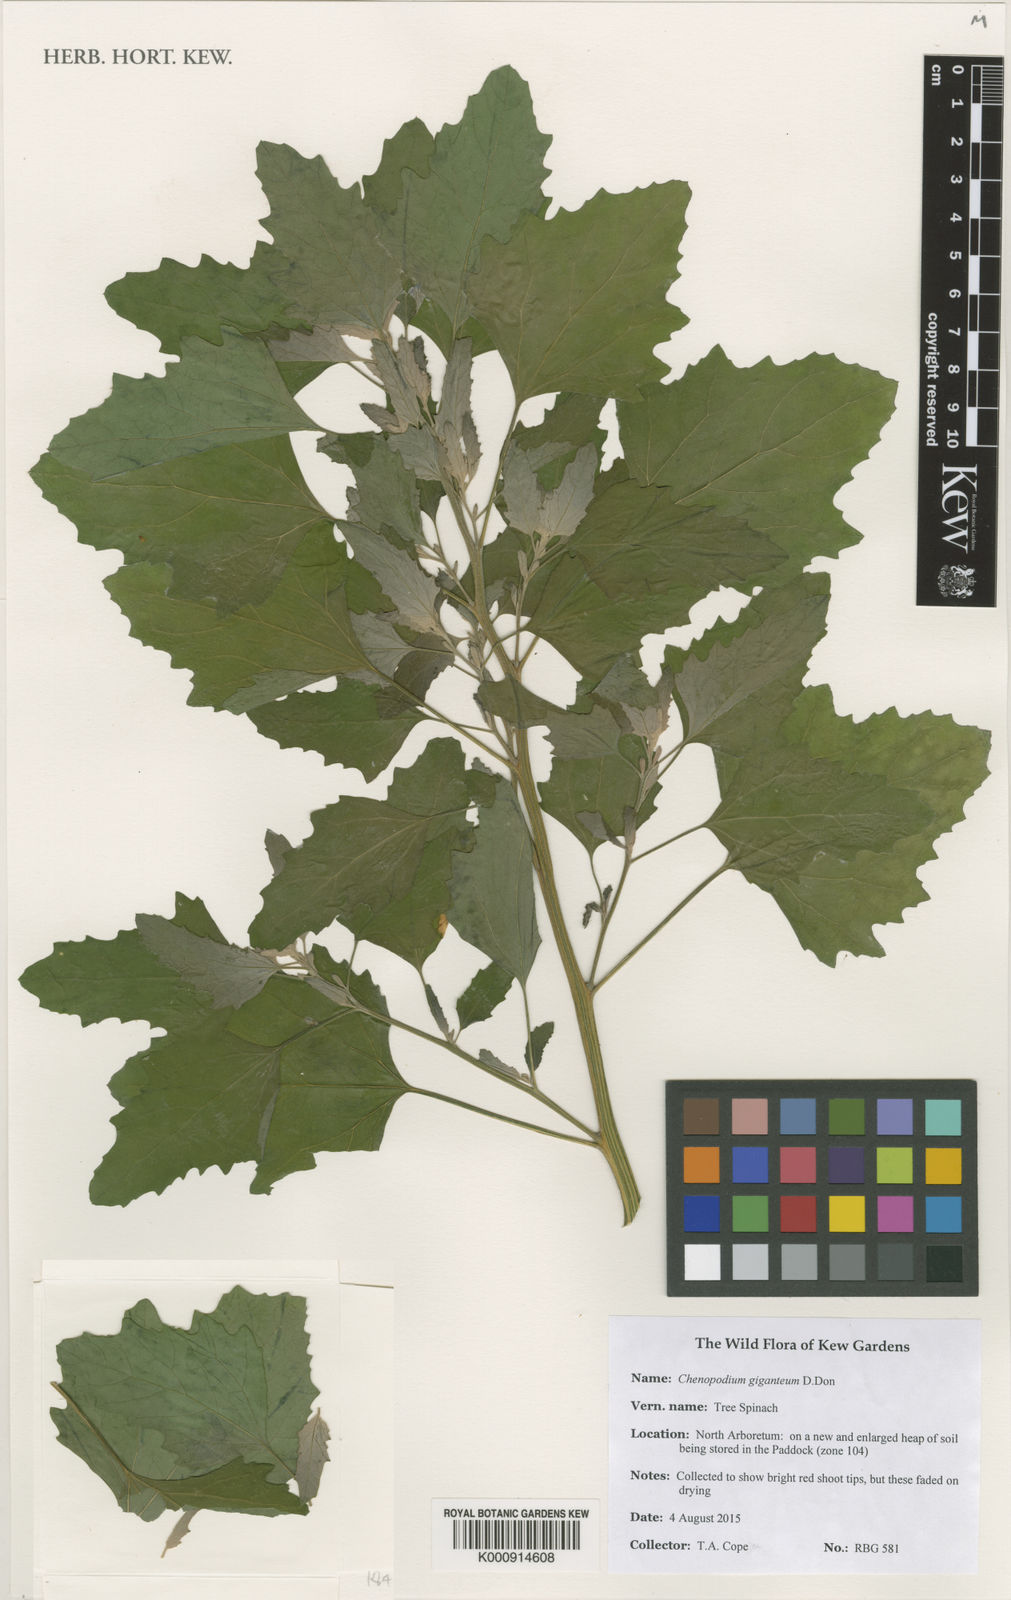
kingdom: Plantae
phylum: Tracheophyta
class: Magnoliopsida
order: Caryophyllales
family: Amaranthaceae
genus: Chenopodium
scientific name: Chenopodium giganteum
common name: Magentaspreen
